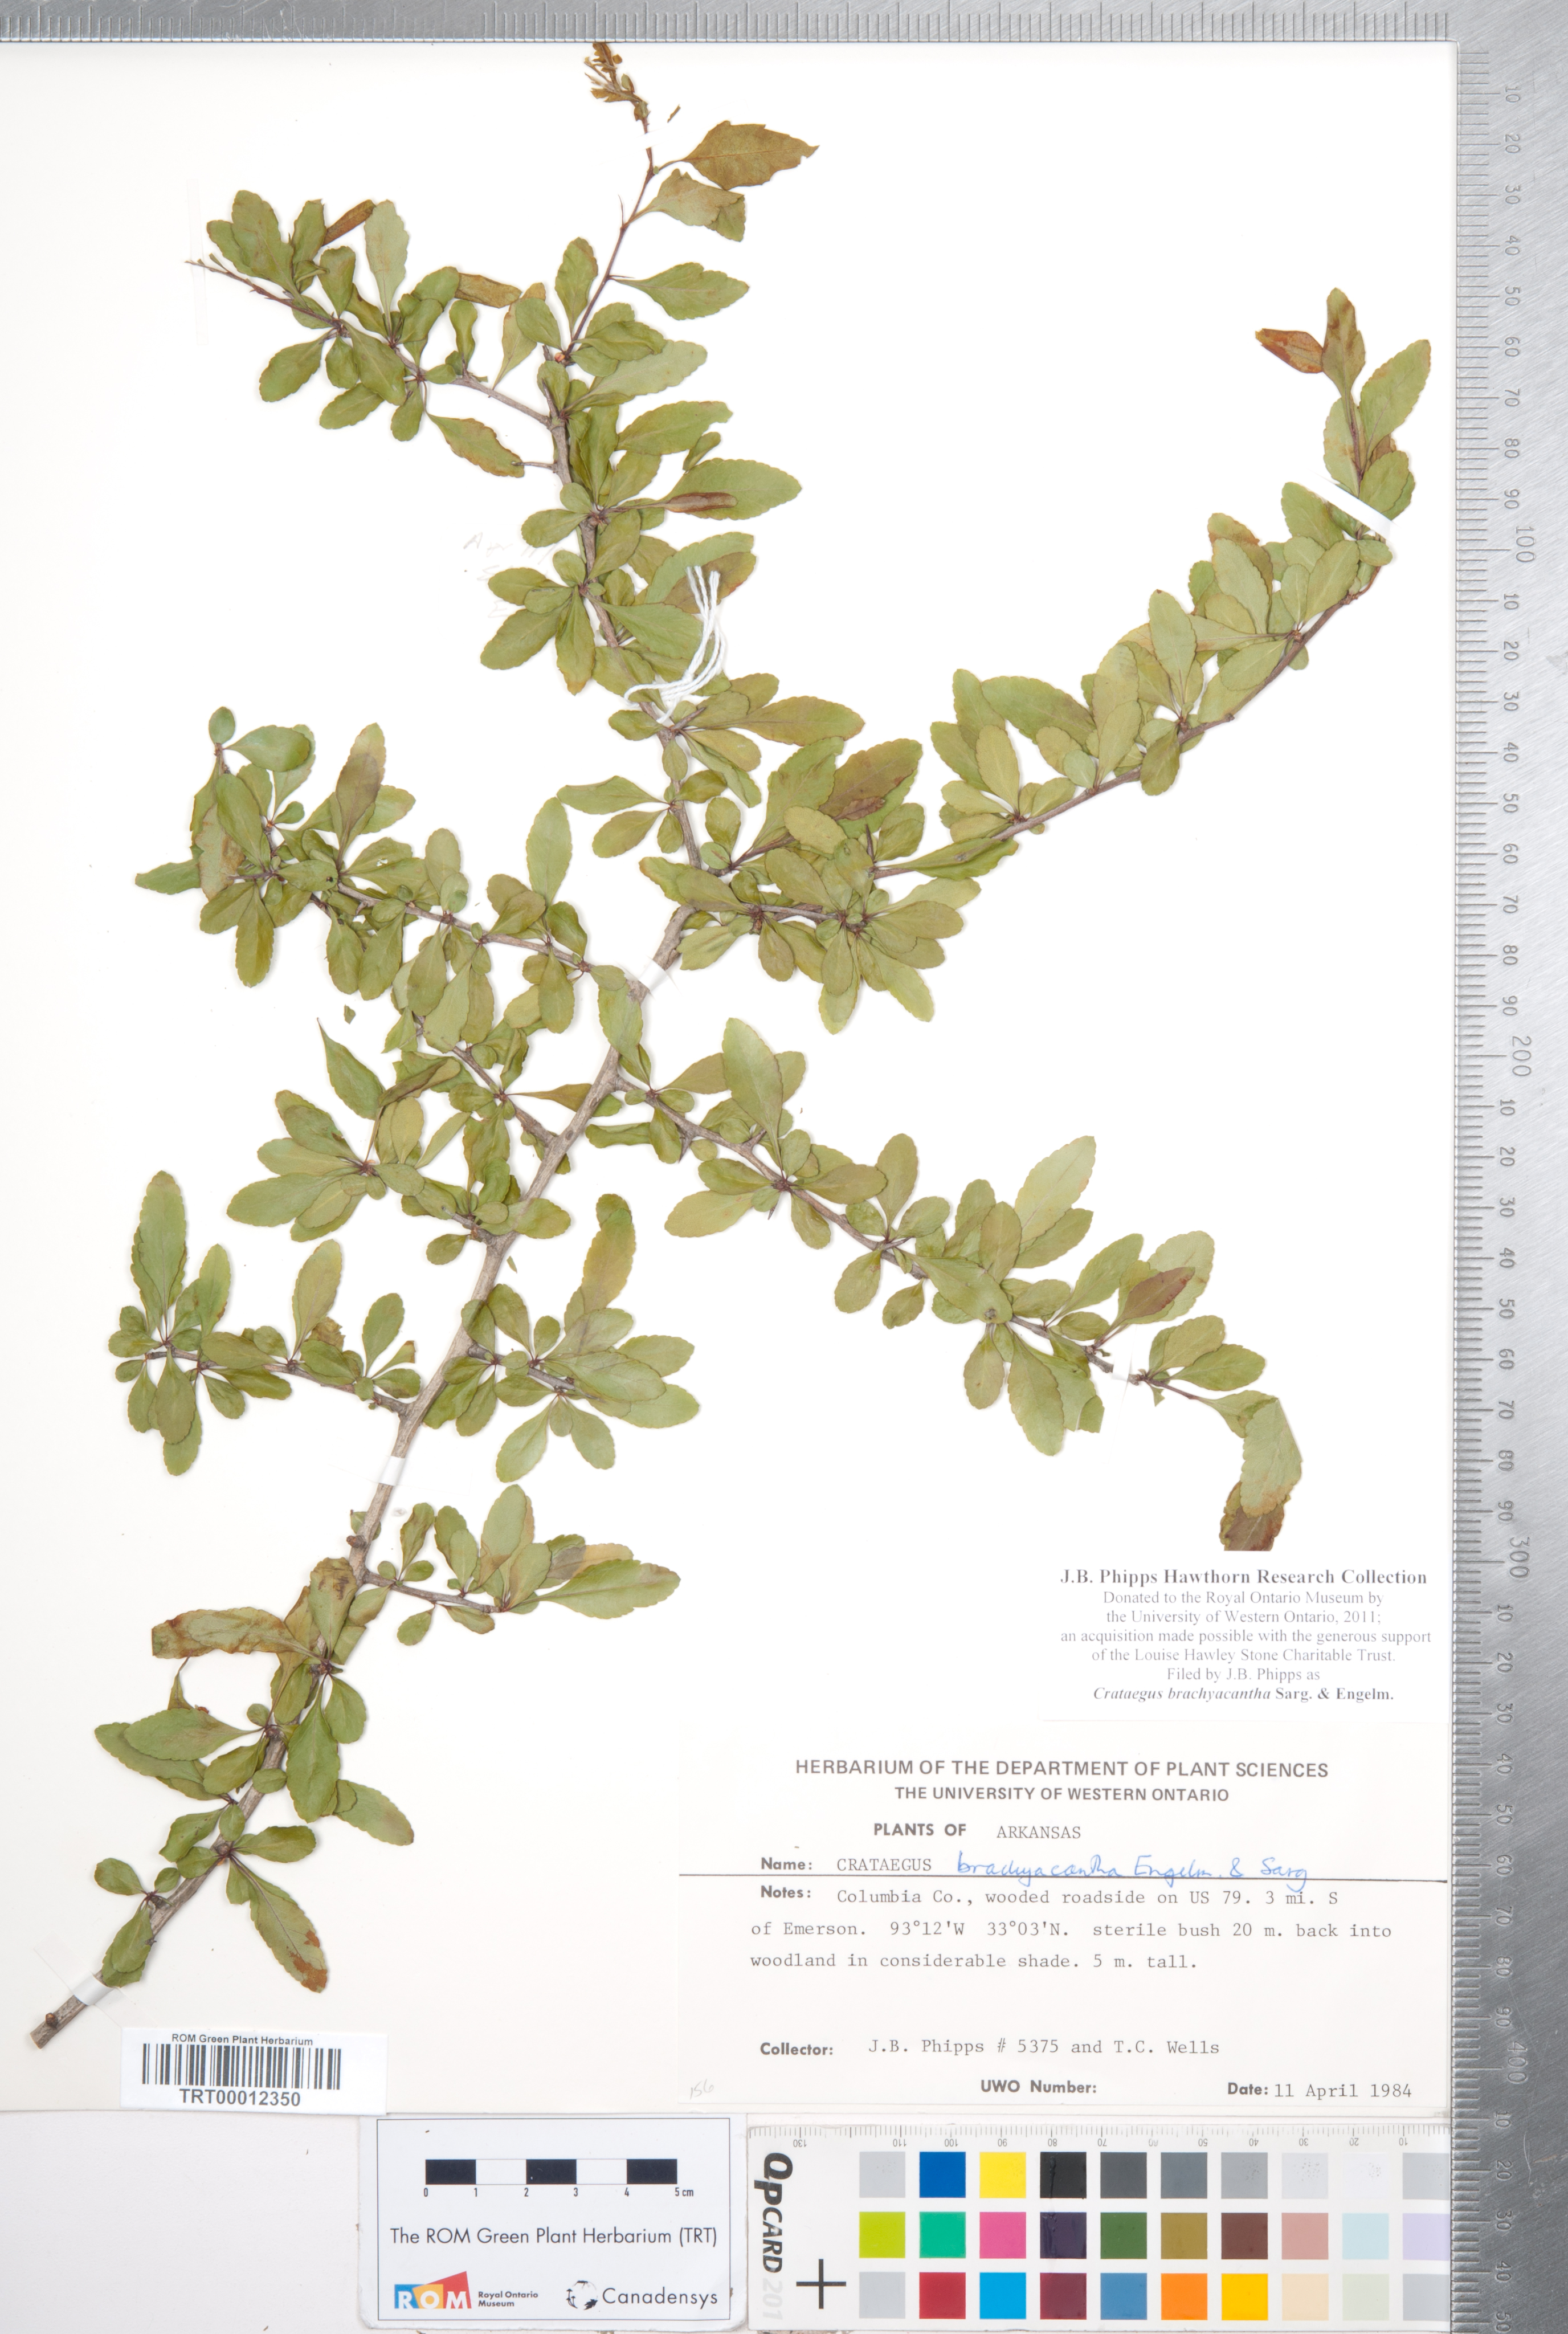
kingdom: Plantae
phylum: Tracheophyta
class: Magnoliopsida
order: Rosales
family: Rosaceae
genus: Crataegus
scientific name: Crataegus brachyacantha
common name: Blueberry-hawthorn
